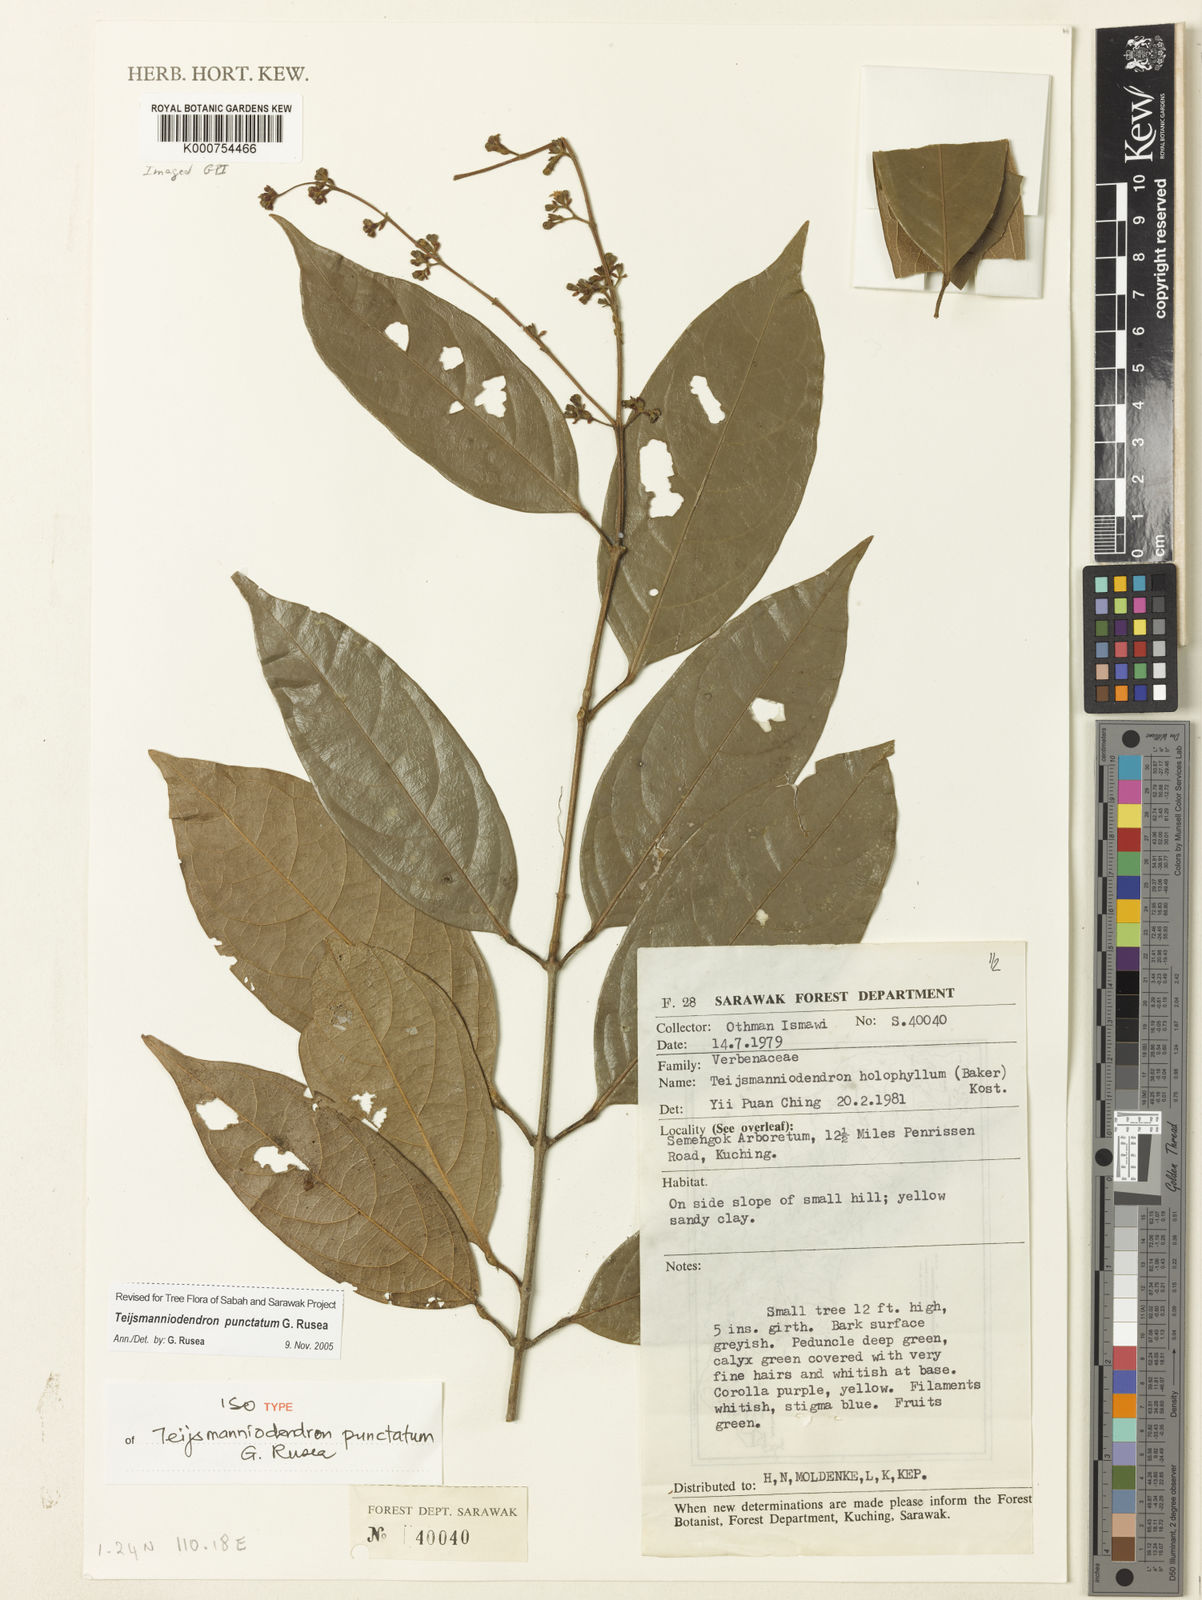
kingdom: Plantae
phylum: Tracheophyta
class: Magnoliopsida
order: Lamiales
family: Lamiaceae
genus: Teijsmanniodendron
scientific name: Teijsmanniodendron punctatum
